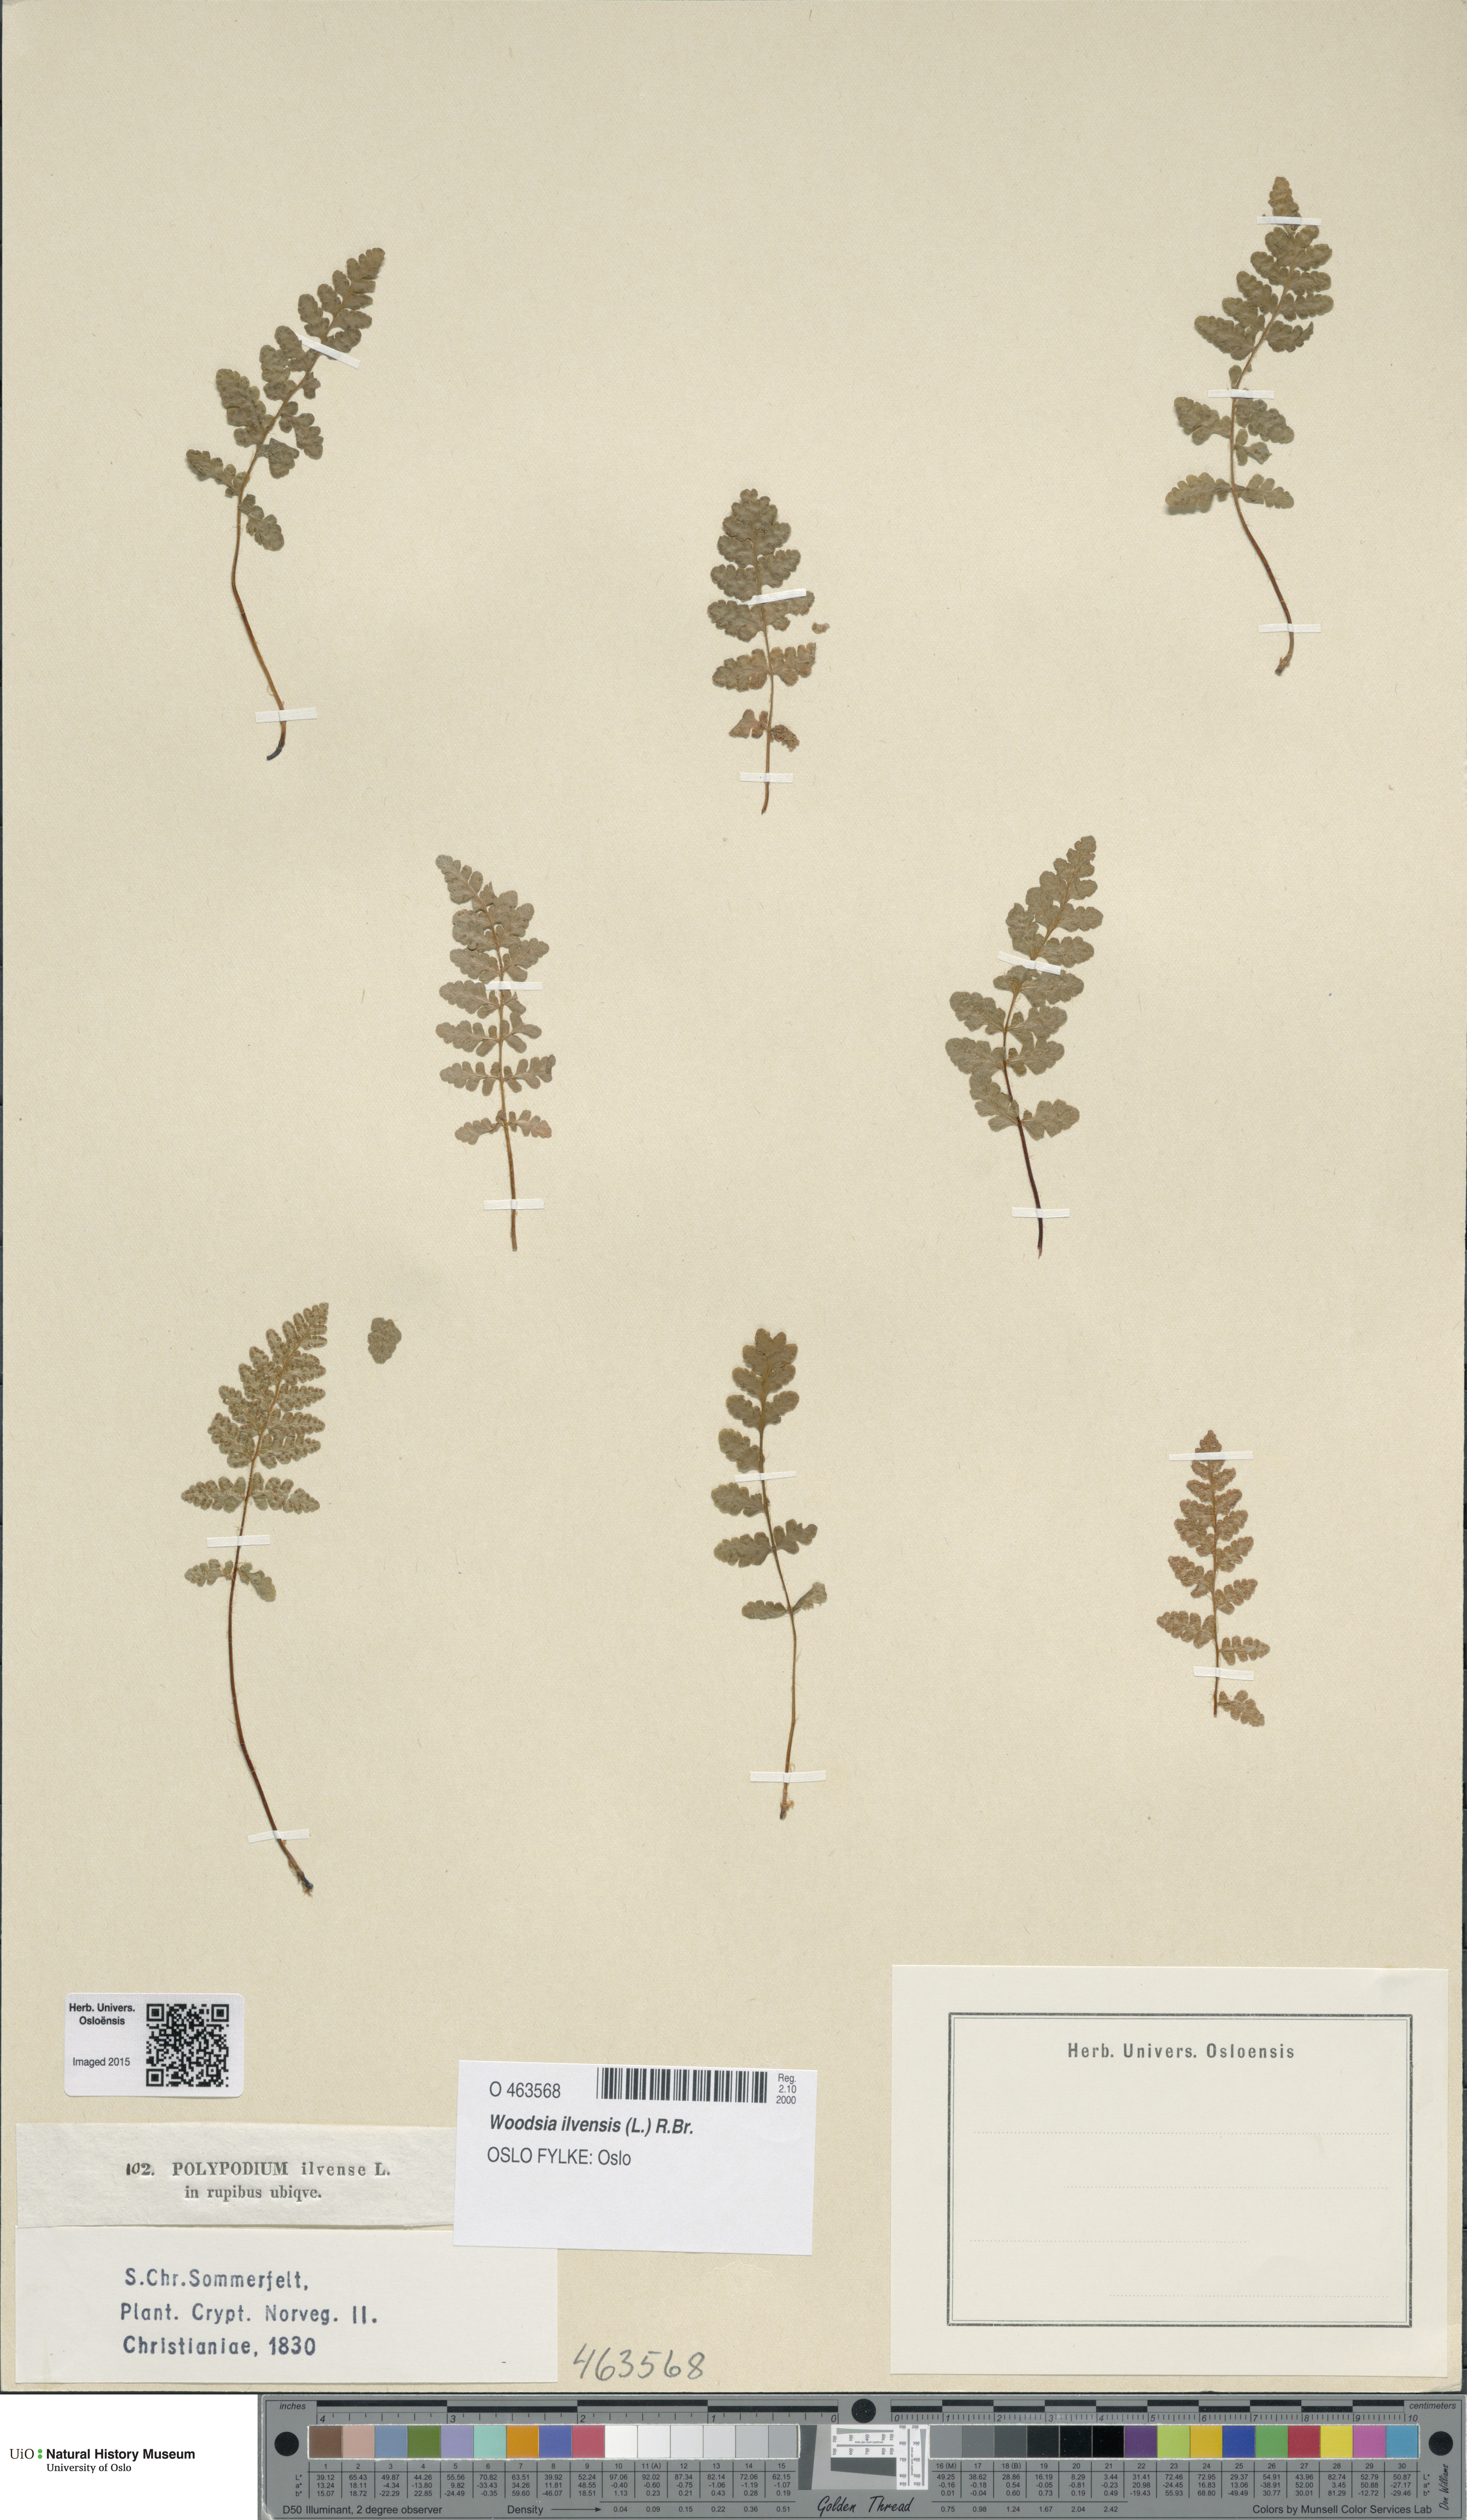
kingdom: Plantae
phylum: Tracheophyta
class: Polypodiopsida
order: Polypodiales
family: Woodsiaceae
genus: Woodsia
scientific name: Woodsia ilvensis
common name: Fragrant woodsia
